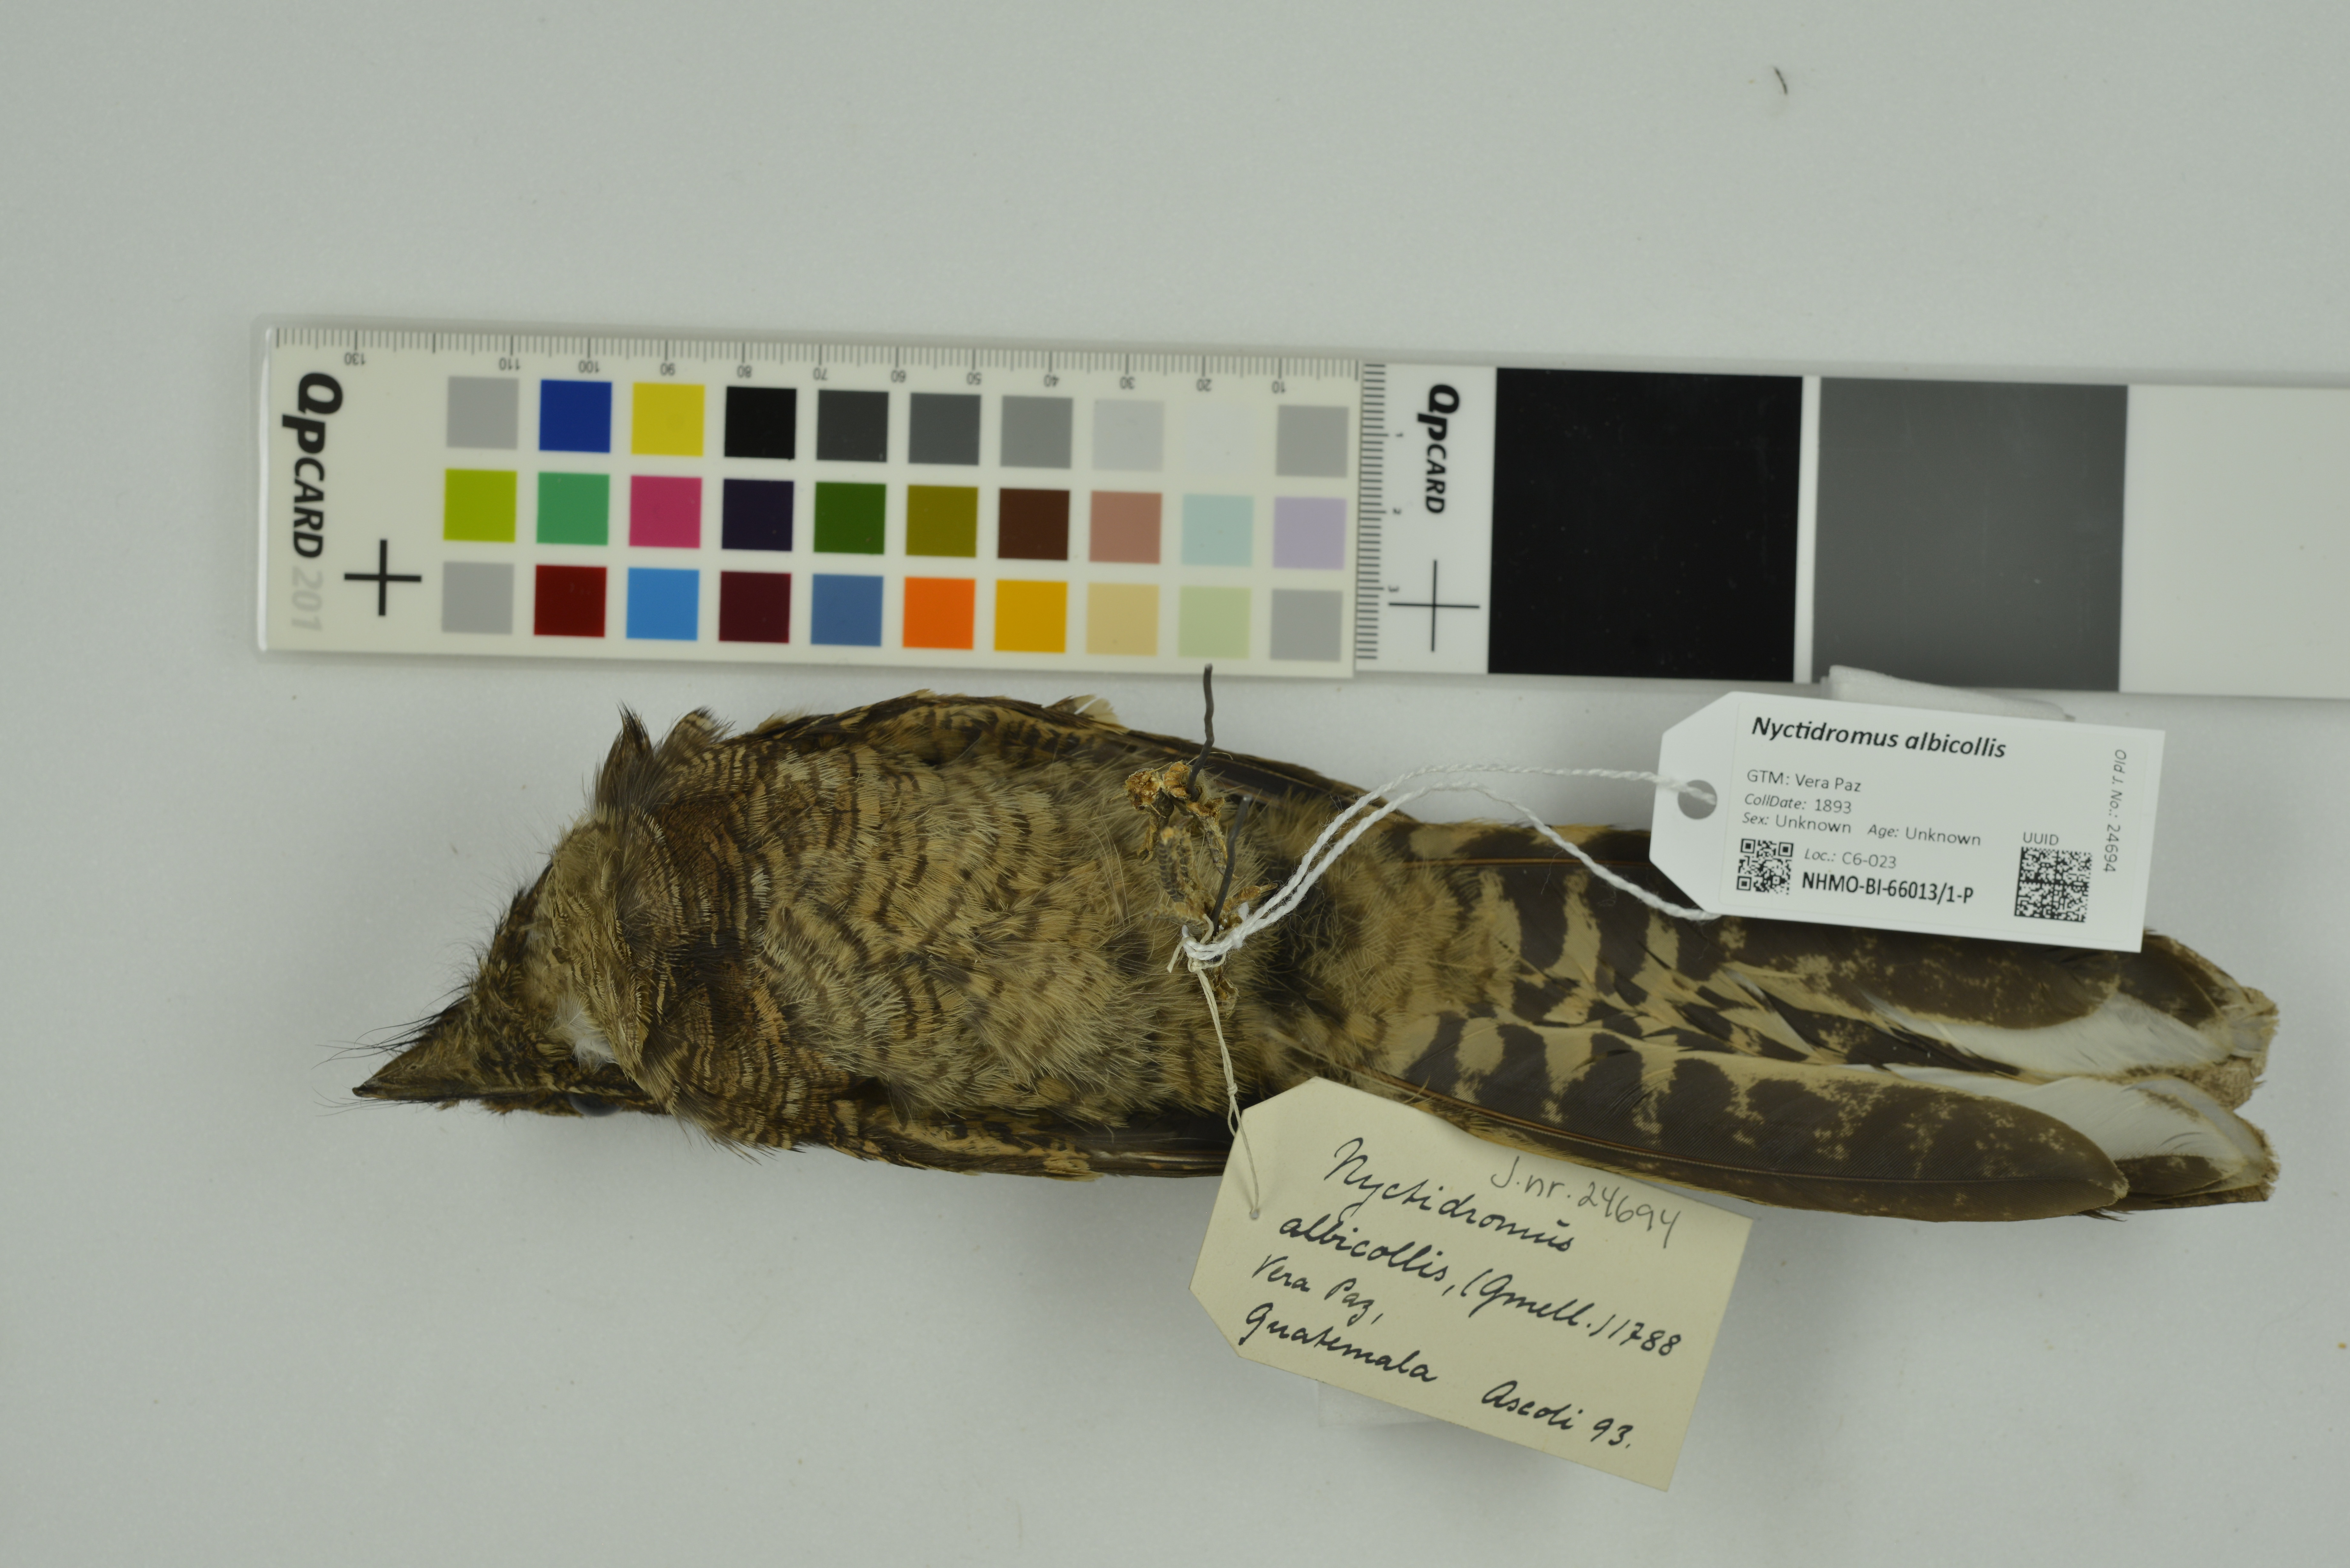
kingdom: Animalia
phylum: Chordata
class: Aves
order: Caprimulgiformes
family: Caprimulgidae
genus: Nyctidromus
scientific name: Nyctidromus albicollis
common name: Pauraque
